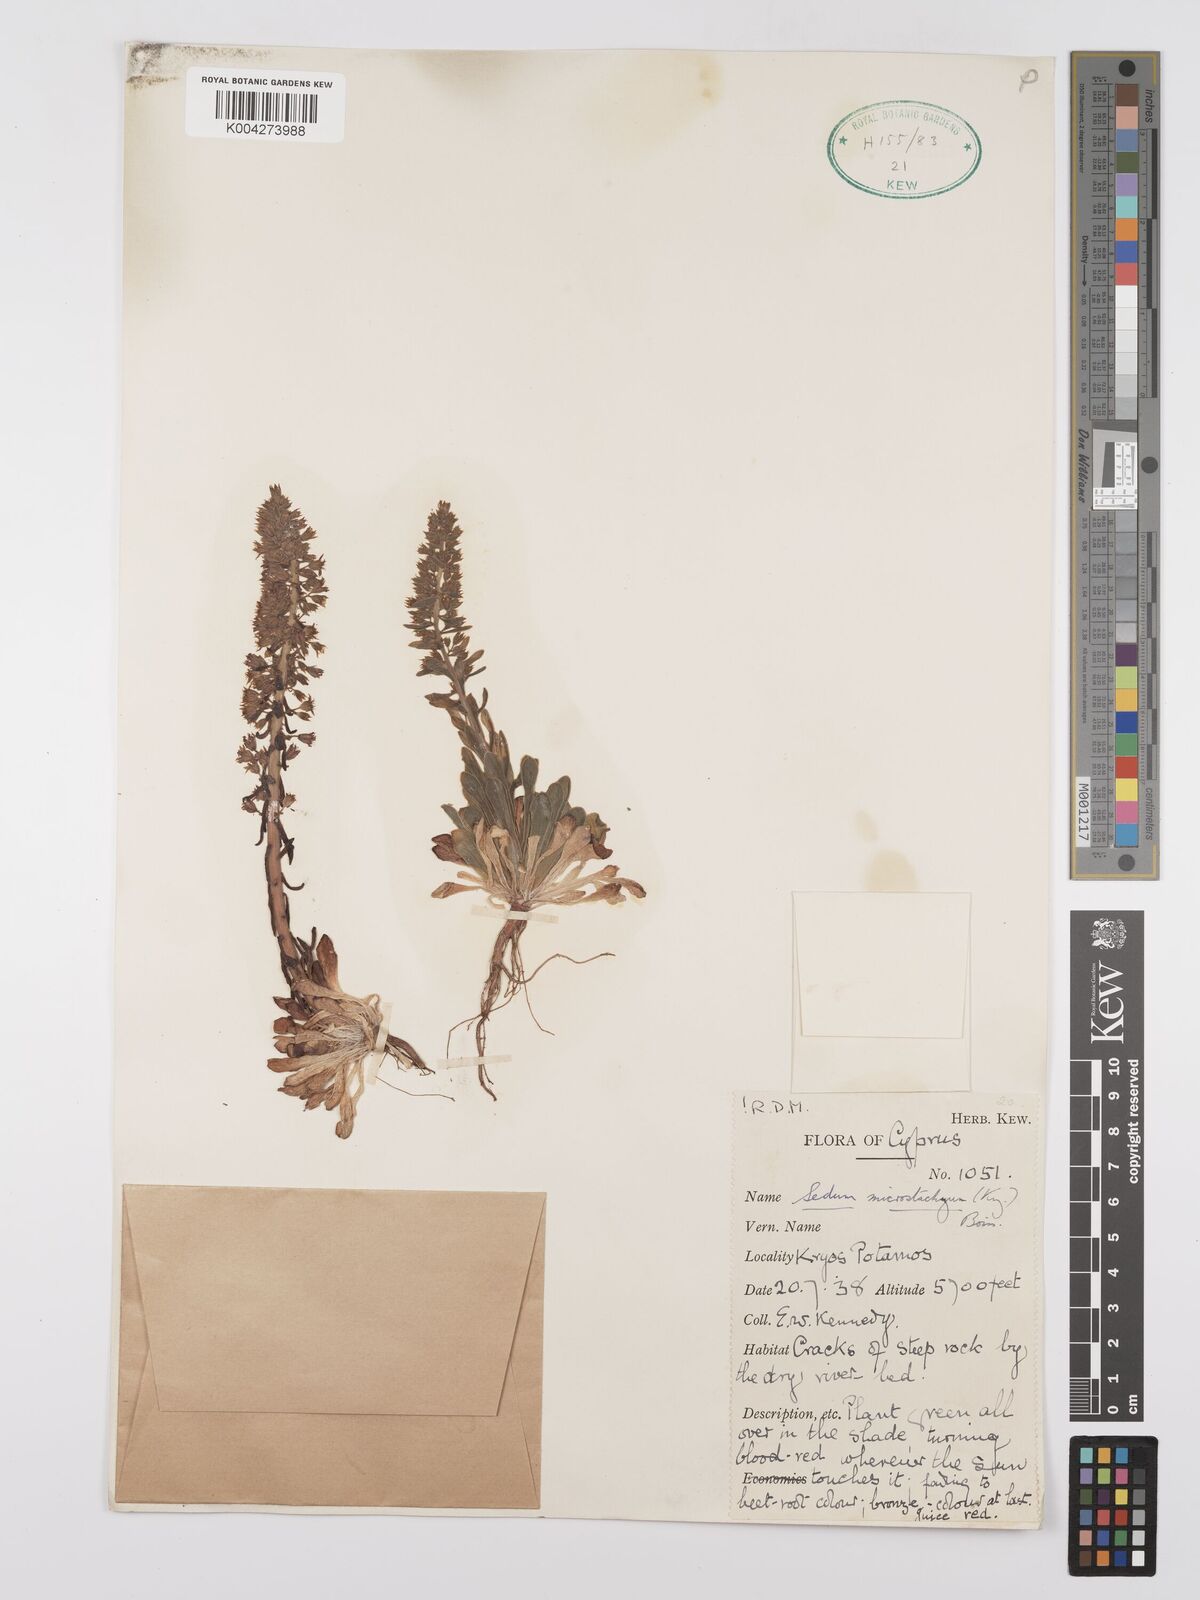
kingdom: Plantae
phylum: Tracheophyta
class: Magnoliopsida
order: Saxifragales
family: Crassulaceae
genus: Sedum
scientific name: Sedum microstachyum
